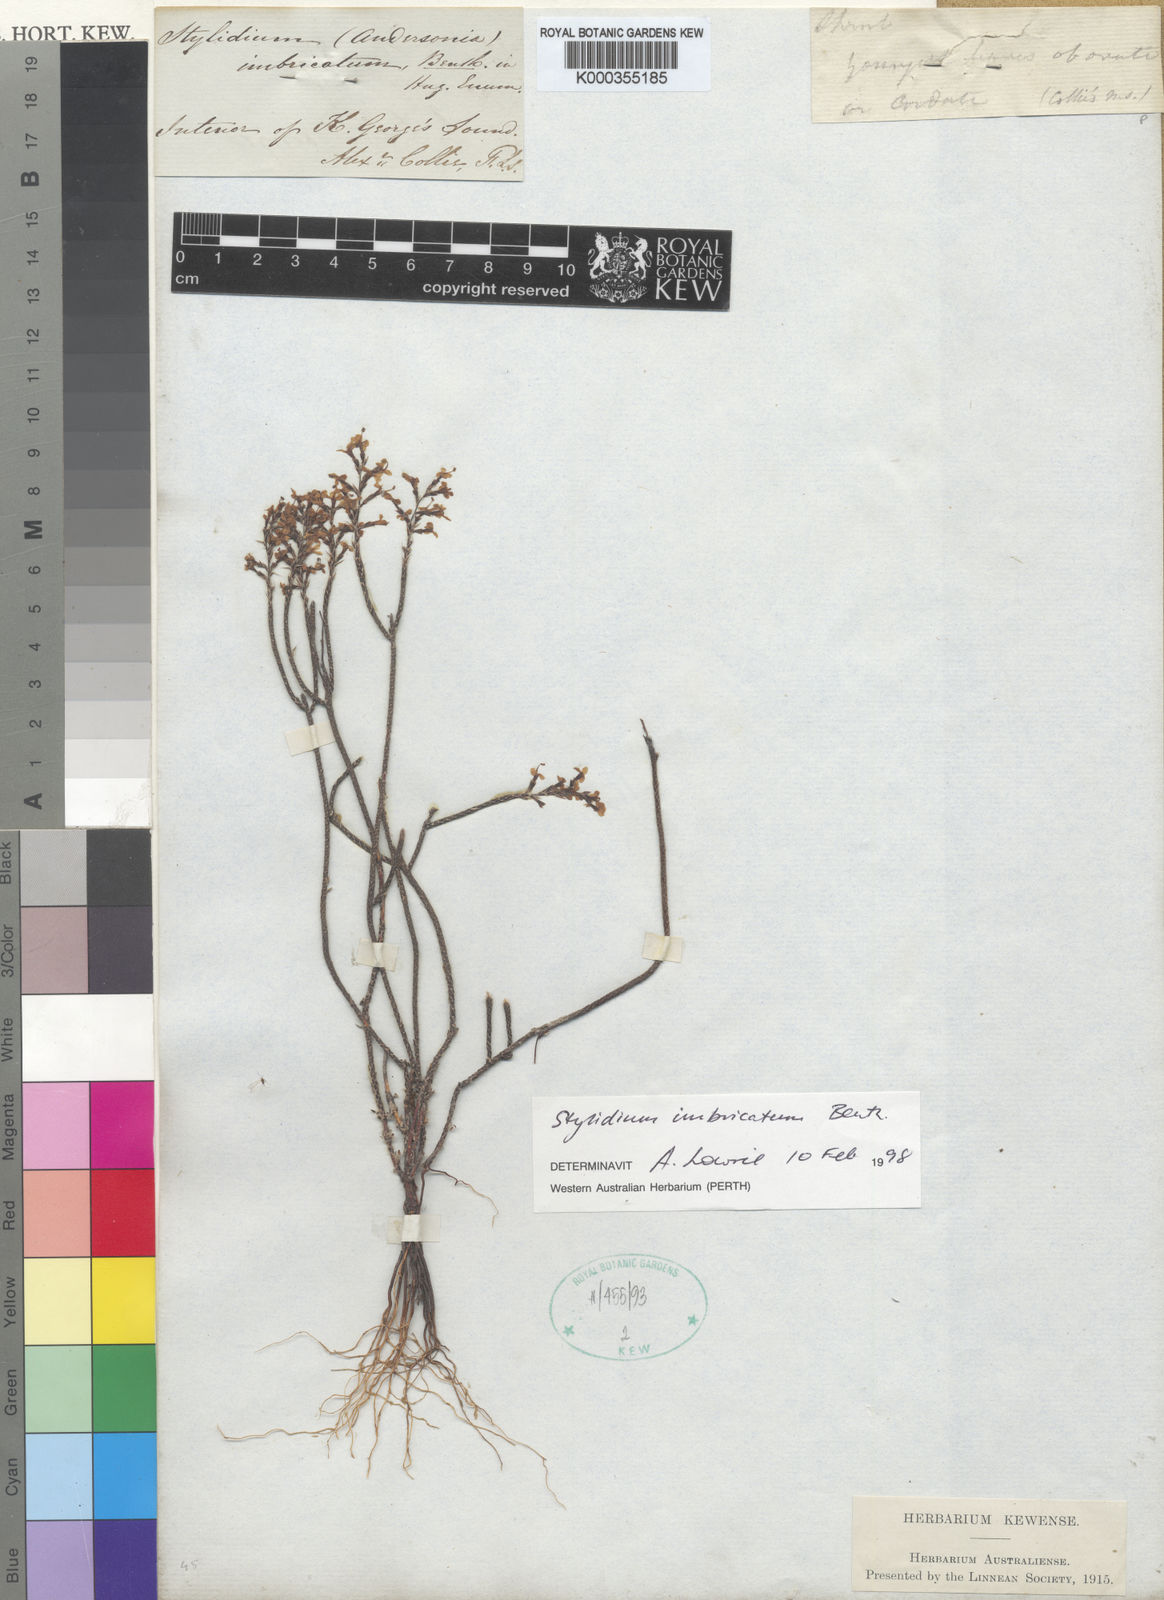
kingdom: Plantae
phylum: Tracheophyta
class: Magnoliopsida
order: Asterales
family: Stylidiaceae
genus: Stylidium
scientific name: Stylidium imbricatum
